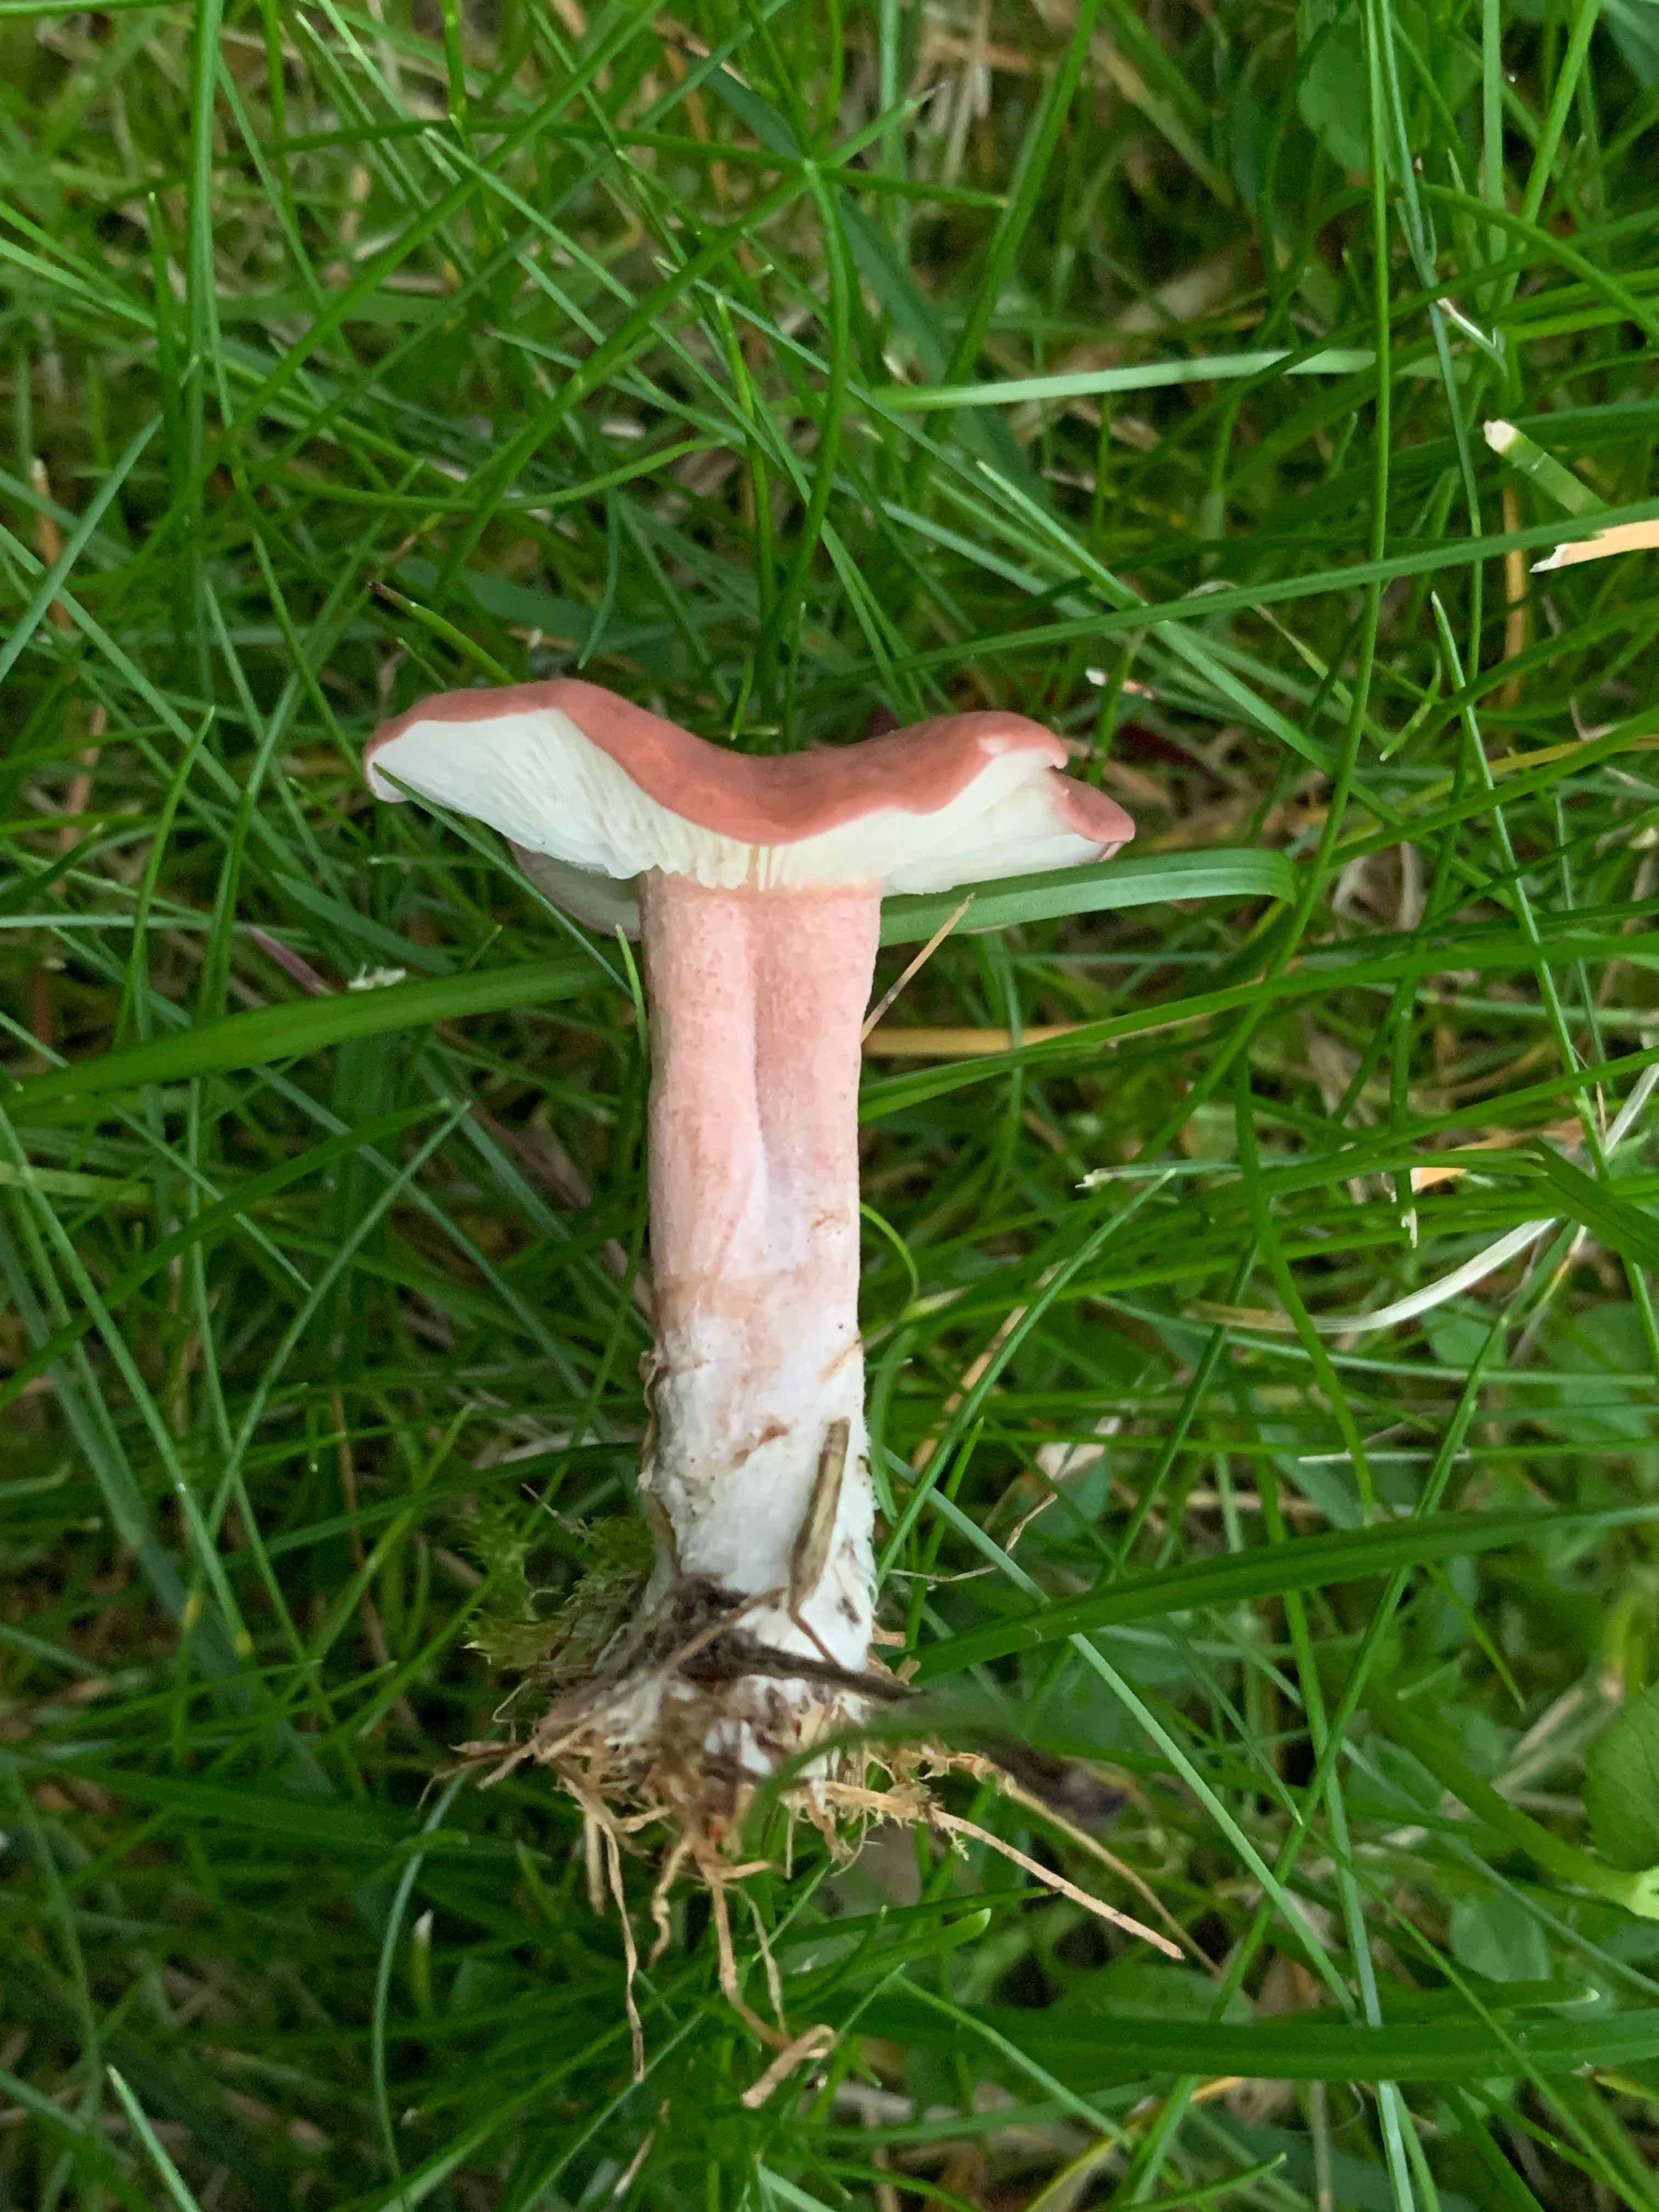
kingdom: Fungi
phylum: Basidiomycota
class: Agaricomycetes
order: Agaricales
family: Lyophyllaceae
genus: Calocybe
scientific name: Calocybe carnea
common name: rosa fagerhat
